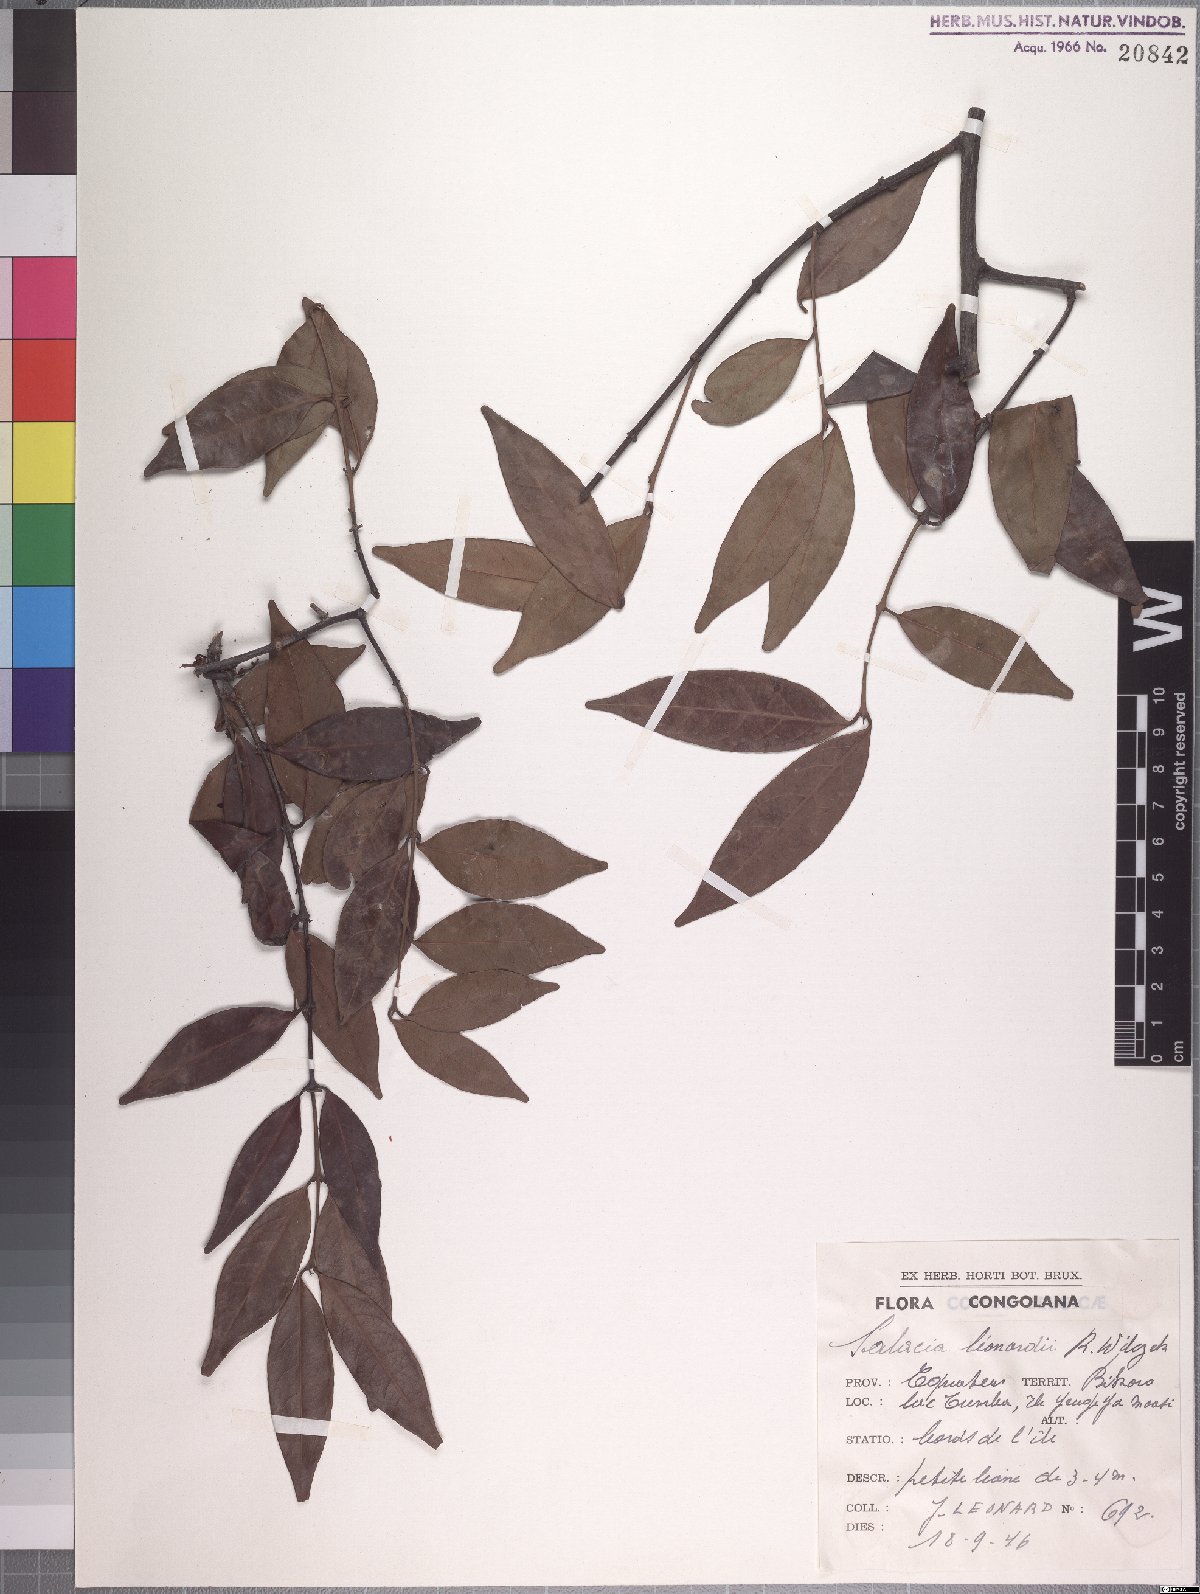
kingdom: Plantae
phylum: Tracheophyta
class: Magnoliopsida
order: Celastrales
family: Celastraceae
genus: Salacia
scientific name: Salacia erecta
